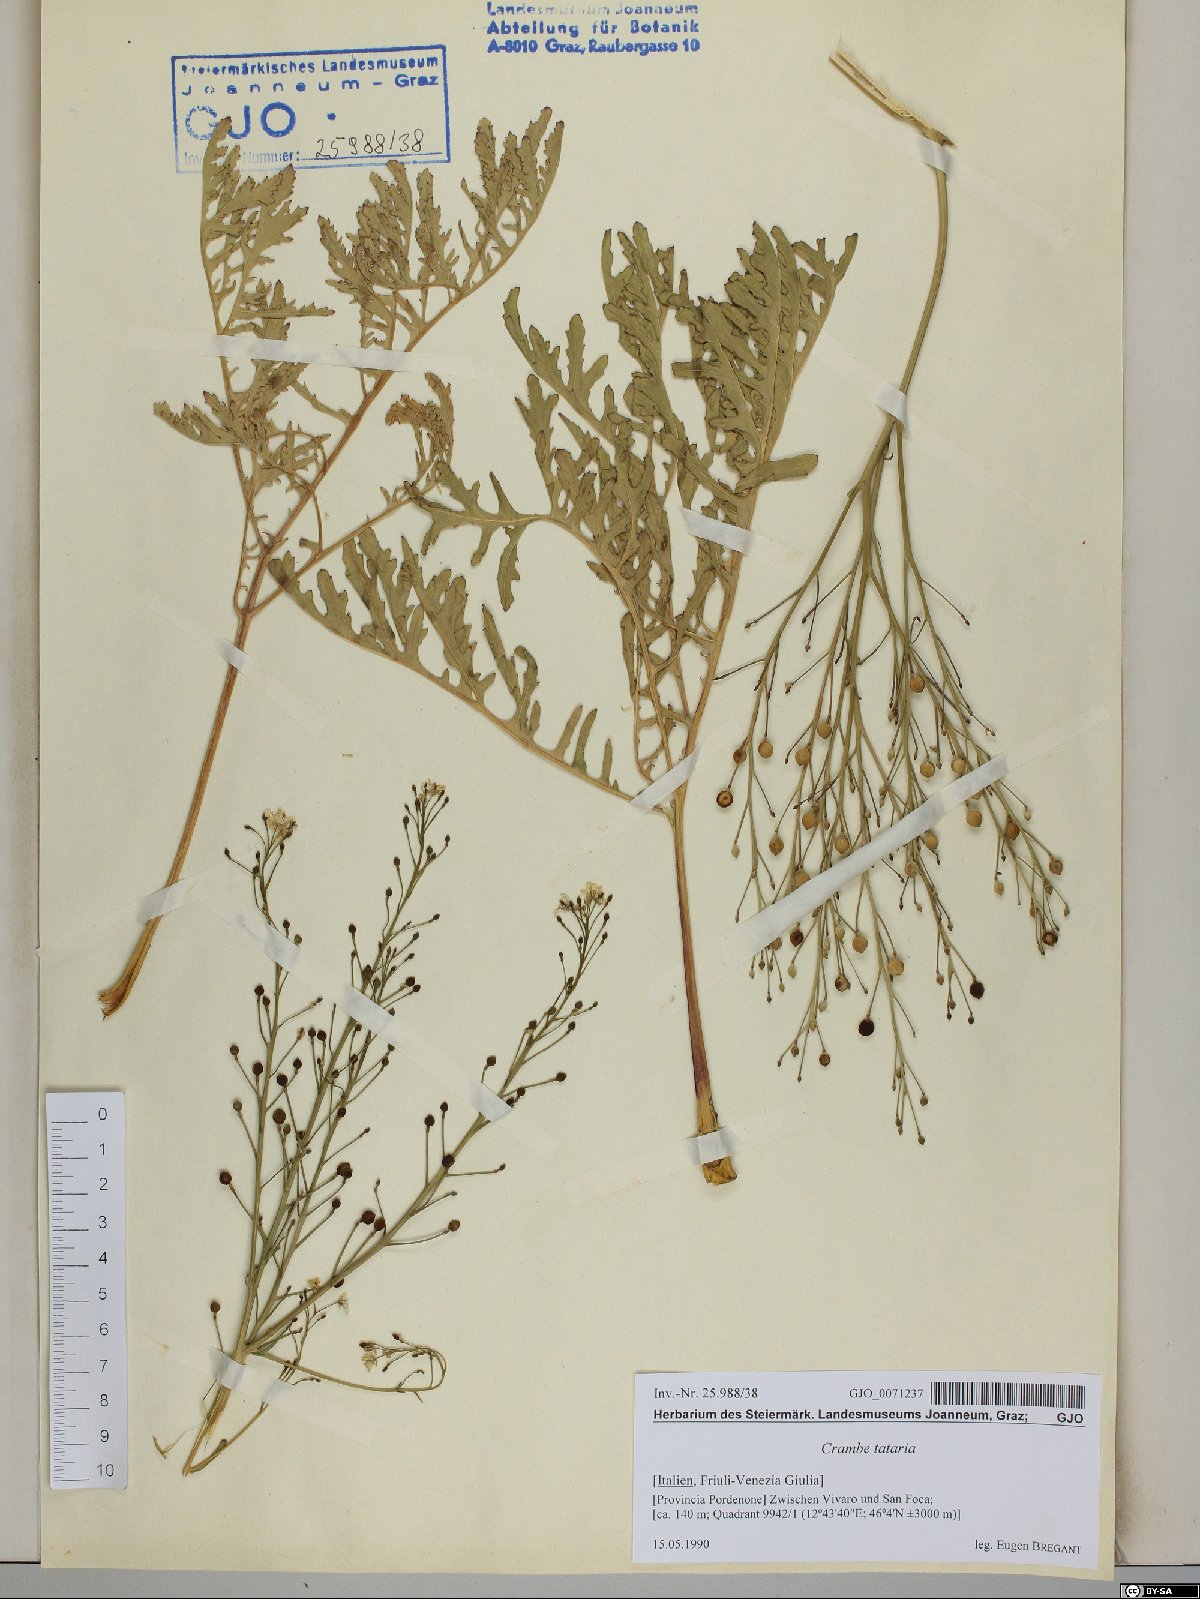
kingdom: Plantae
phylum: Tracheophyta
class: Magnoliopsida
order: Brassicales
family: Brassicaceae
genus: Crambe
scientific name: Crambe tataria
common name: Tartarian breadplant
